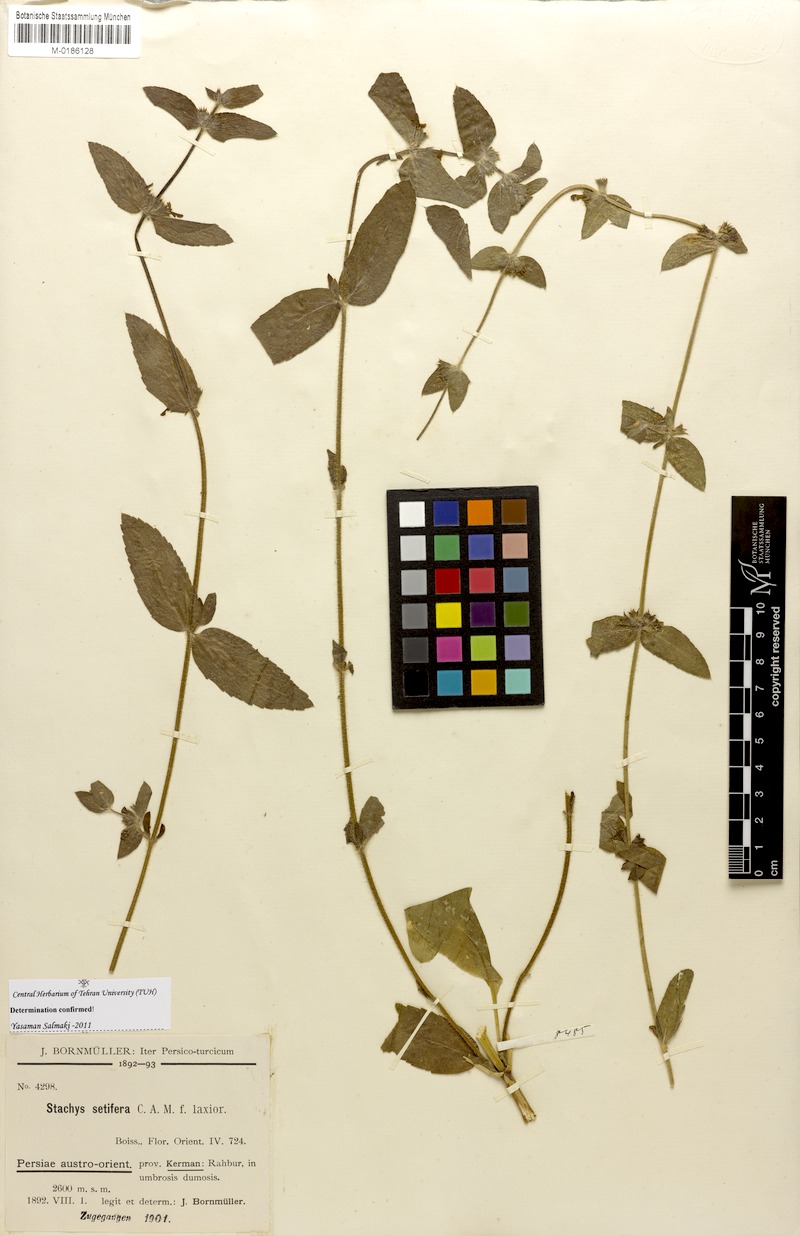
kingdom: Plantae
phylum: Tracheophyta
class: Magnoliopsida
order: Lamiales
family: Lamiaceae
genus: Stachys
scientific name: Stachys setifera
